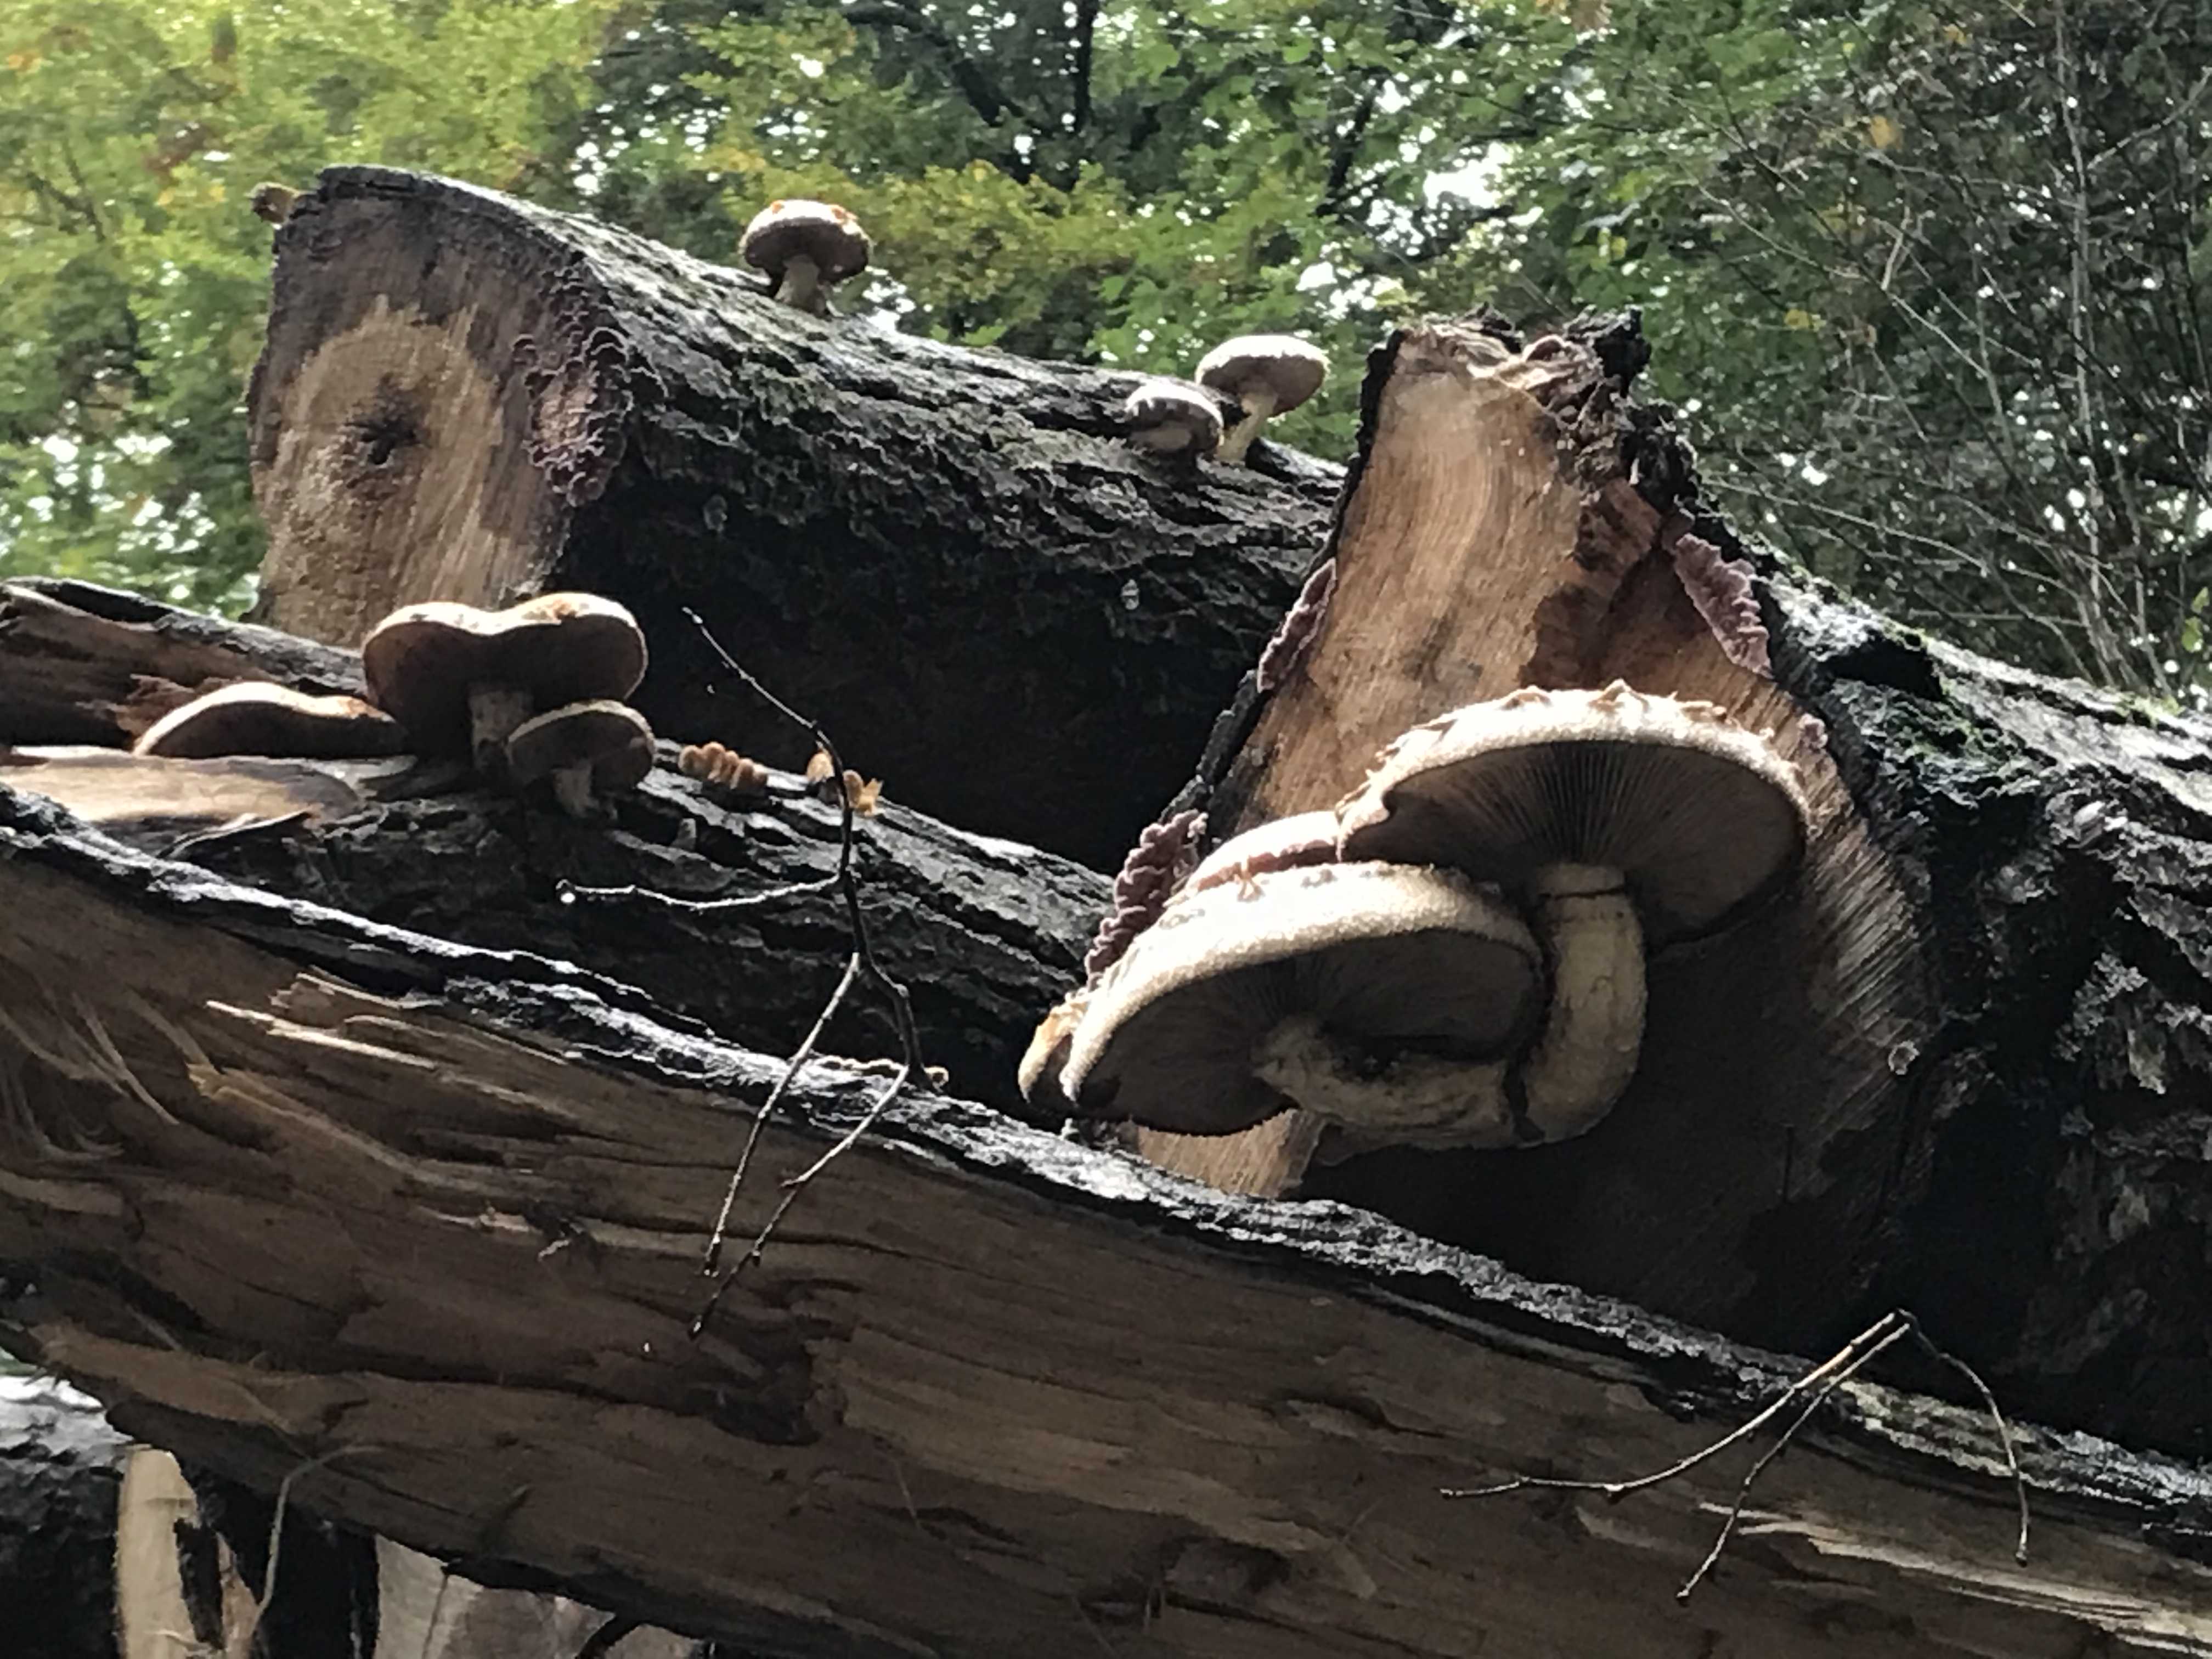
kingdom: Fungi
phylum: Basidiomycota
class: Agaricomycetes
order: Agaricales
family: Strophariaceae
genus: Pholiota
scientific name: Pholiota populnea
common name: poppel-kæmpeskælhat
